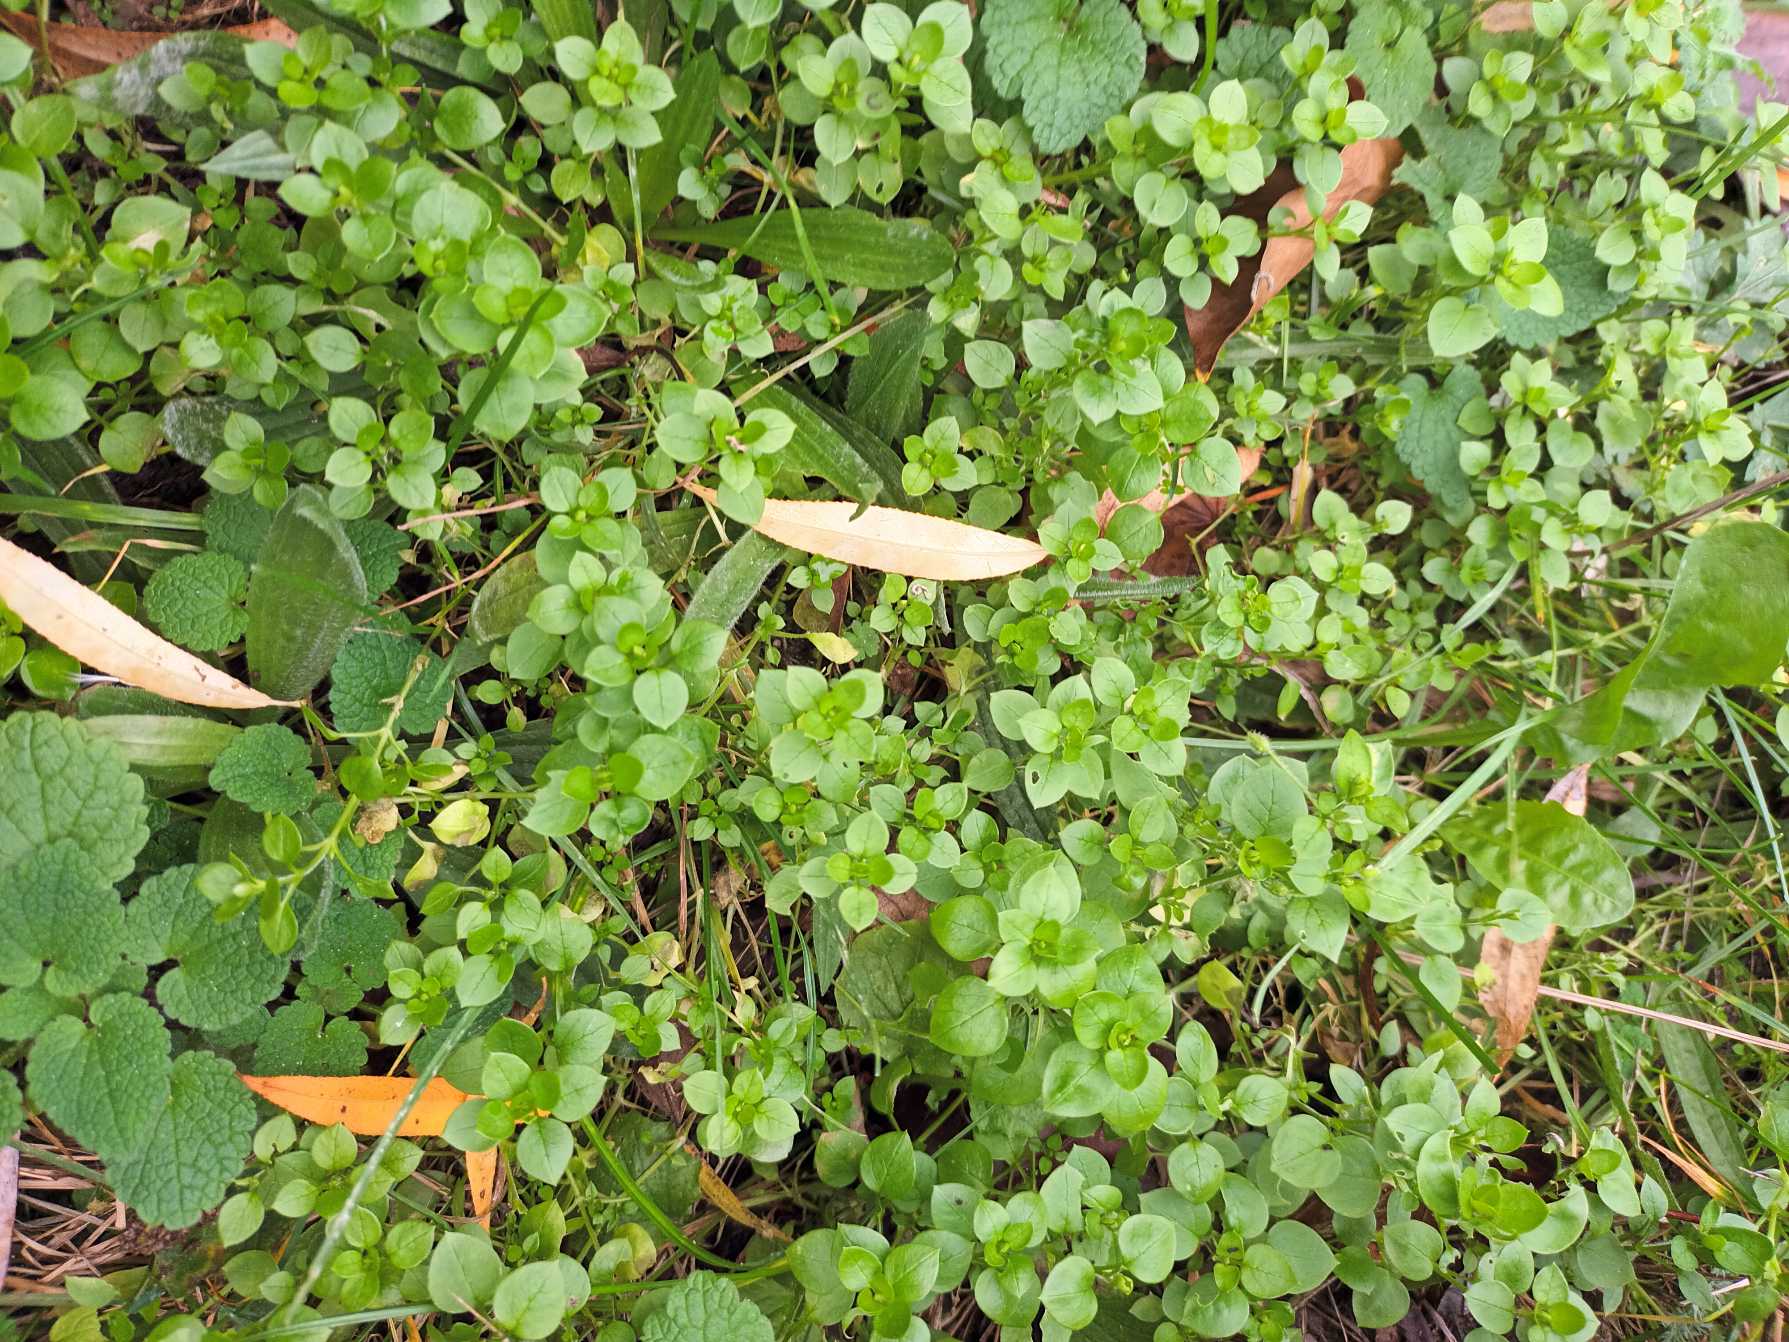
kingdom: Plantae
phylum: Tracheophyta
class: Magnoliopsida
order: Caryophyllales
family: Caryophyllaceae
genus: Stellaria
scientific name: Stellaria media
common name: Almindelig fuglegræs
